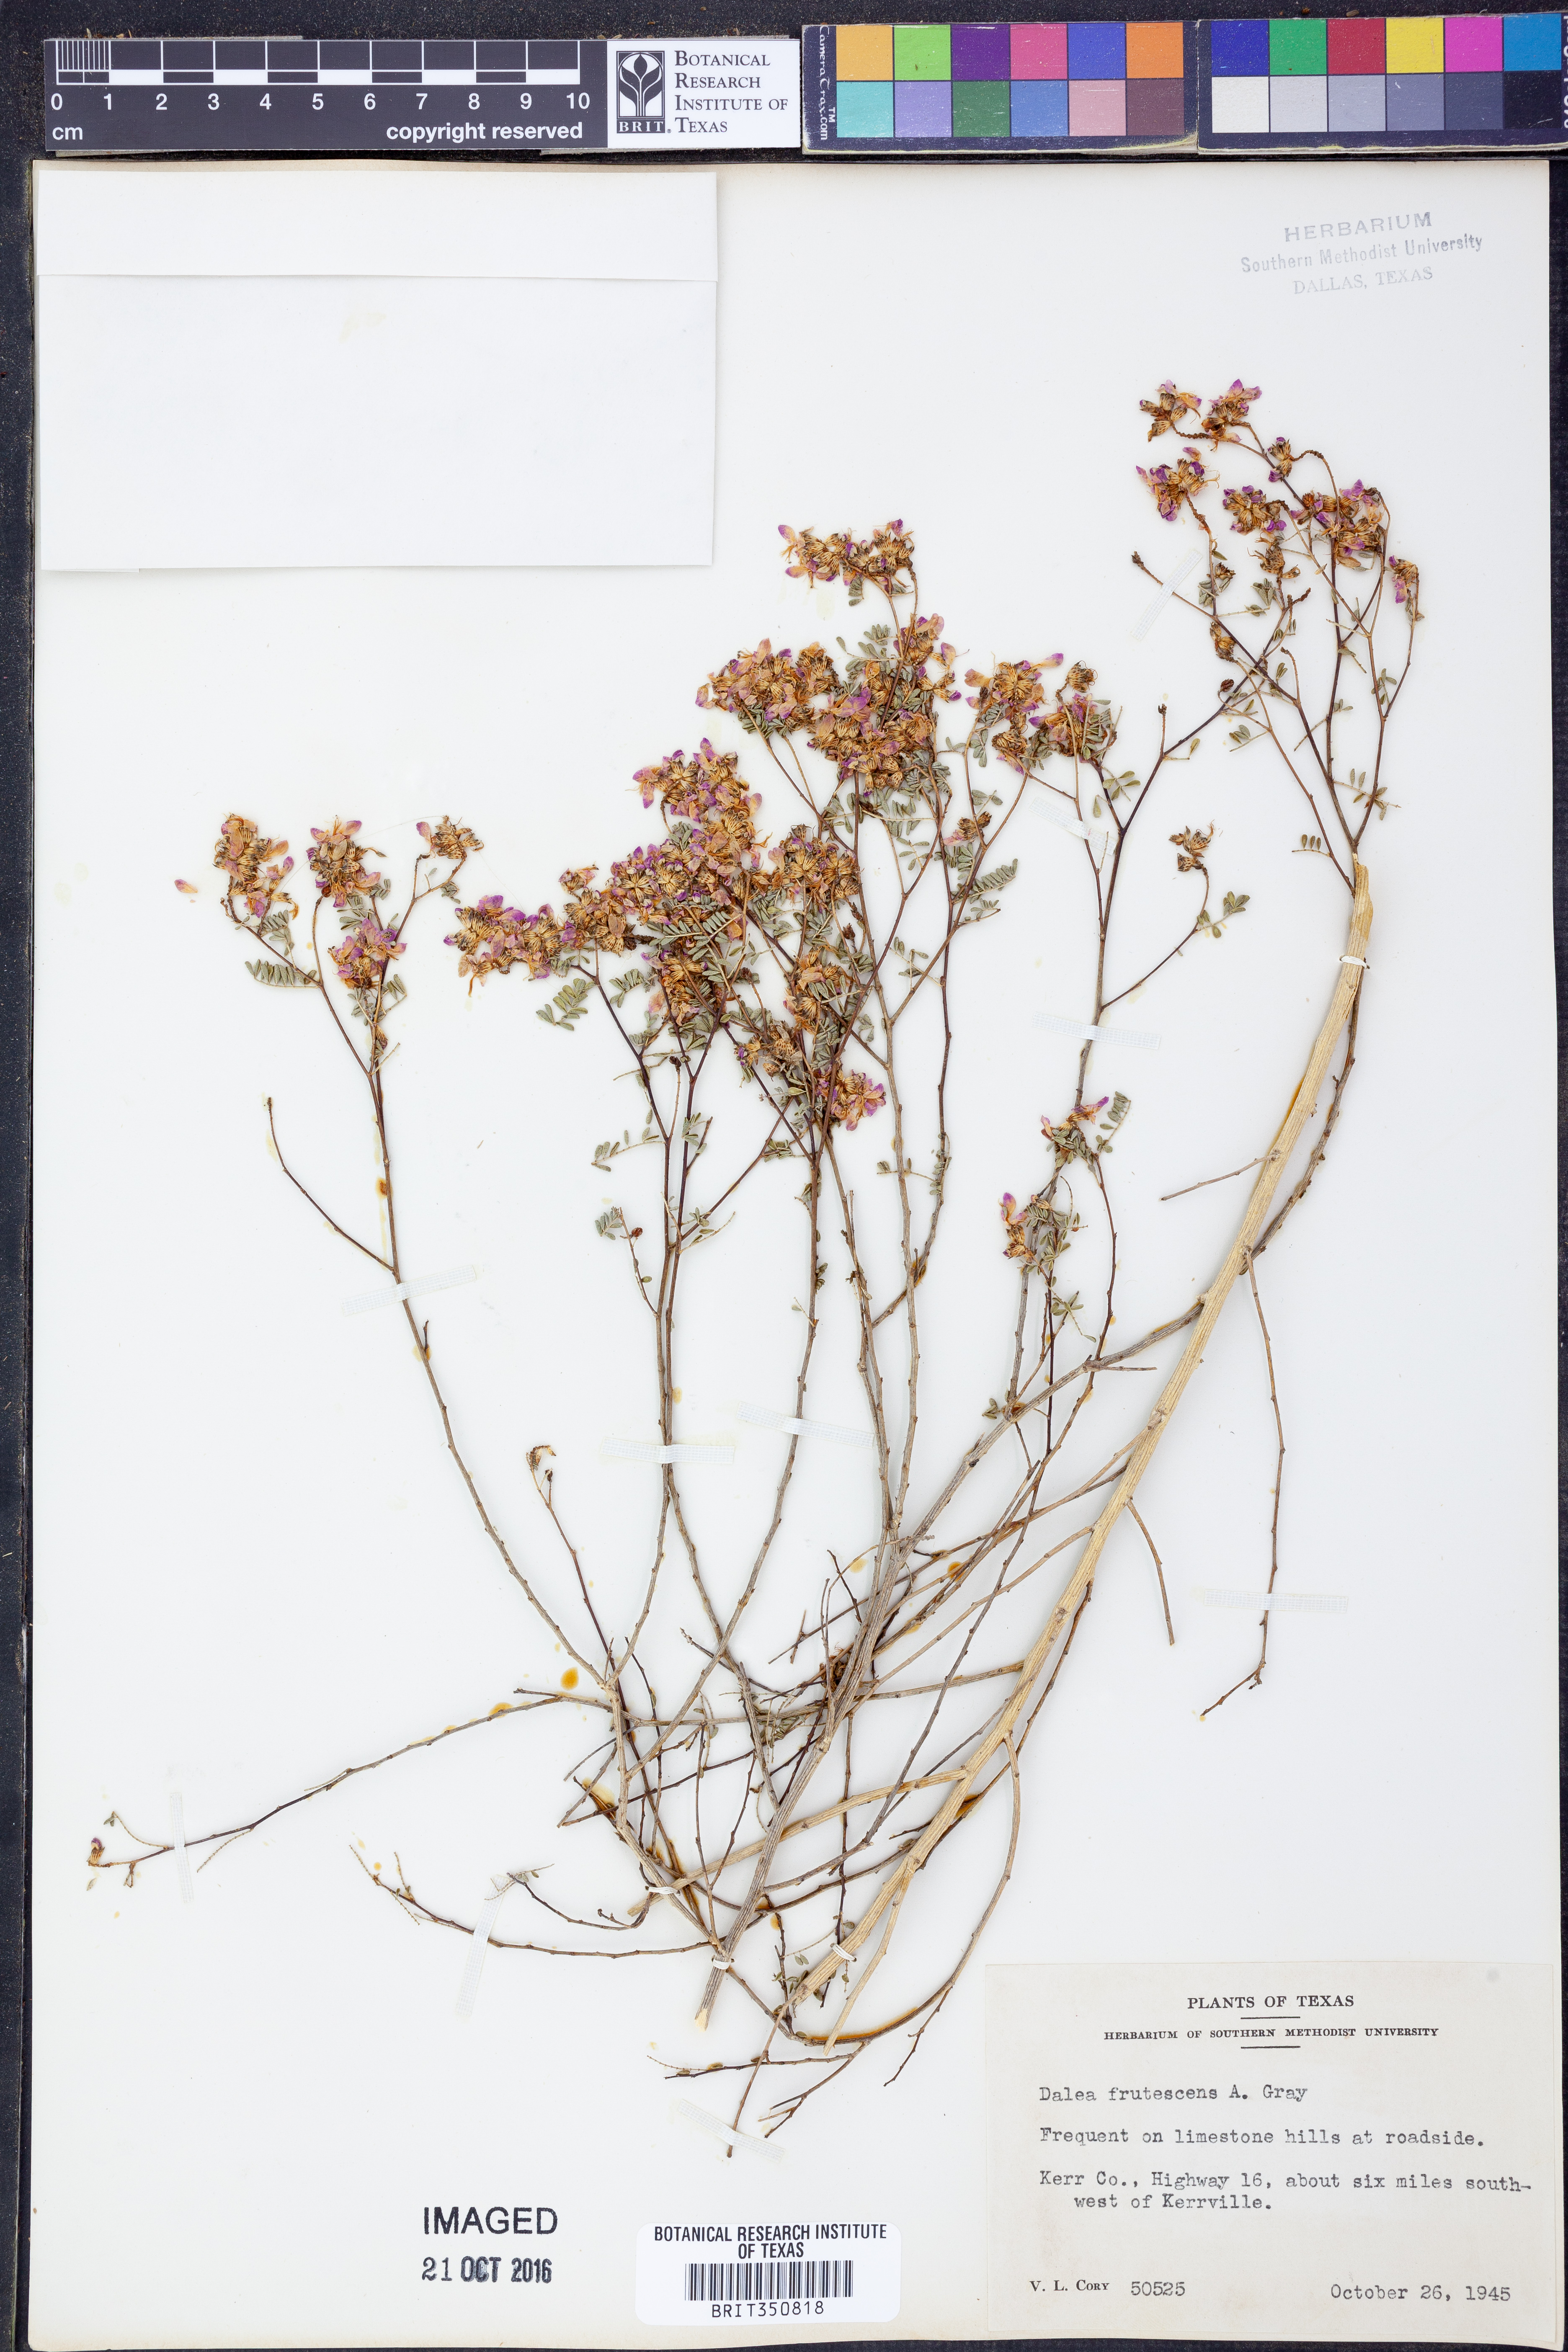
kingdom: Plantae
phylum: Tracheophyta
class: Magnoliopsida
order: Fabales
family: Fabaceae
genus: Dalea
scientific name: Dalea frutescens
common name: Black dalea
